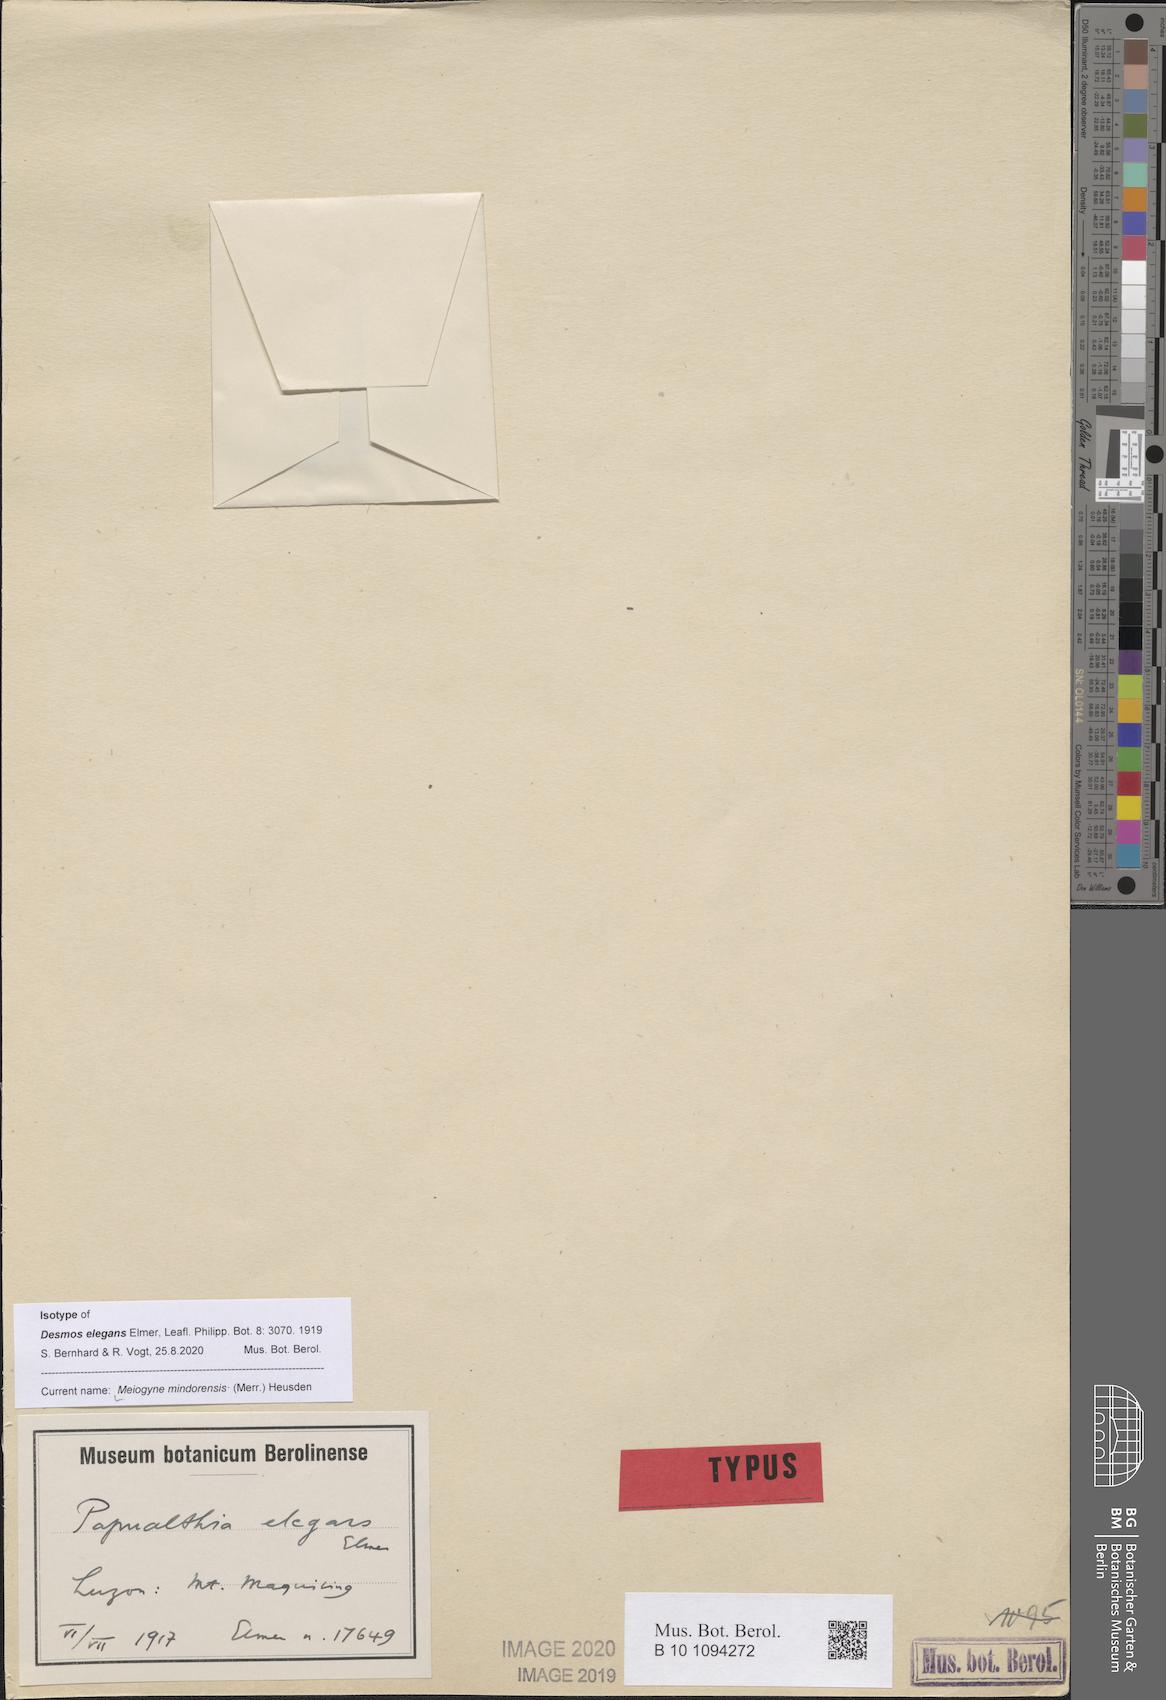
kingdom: Plantae
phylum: Tracheophyta
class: Magnoliopsida
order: Magnoliales
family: Annonaceae
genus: Meiogyne
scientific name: Meiogyne mindorensis
